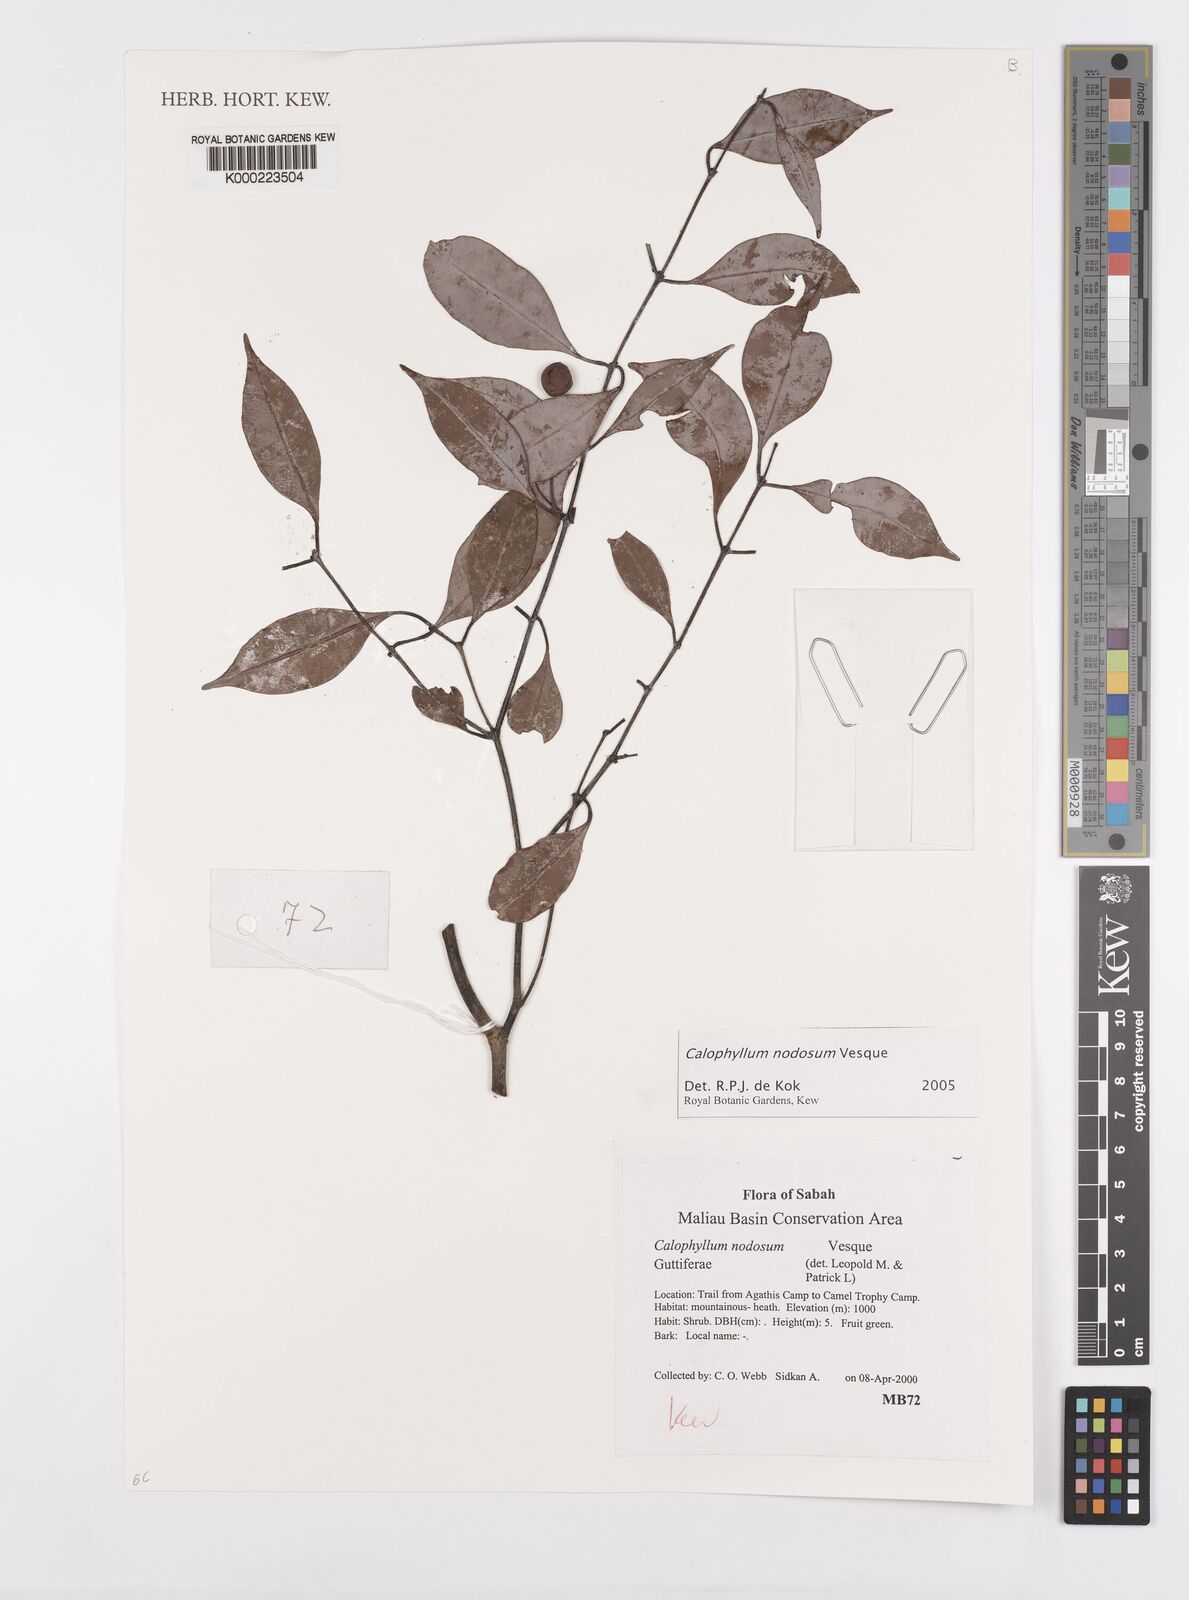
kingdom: Plantae
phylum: Tracheophyta
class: Magnoliopsida
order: Malpighiales
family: Calophyllaceae
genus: Calophyllum
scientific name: Calophyllum nodosum
